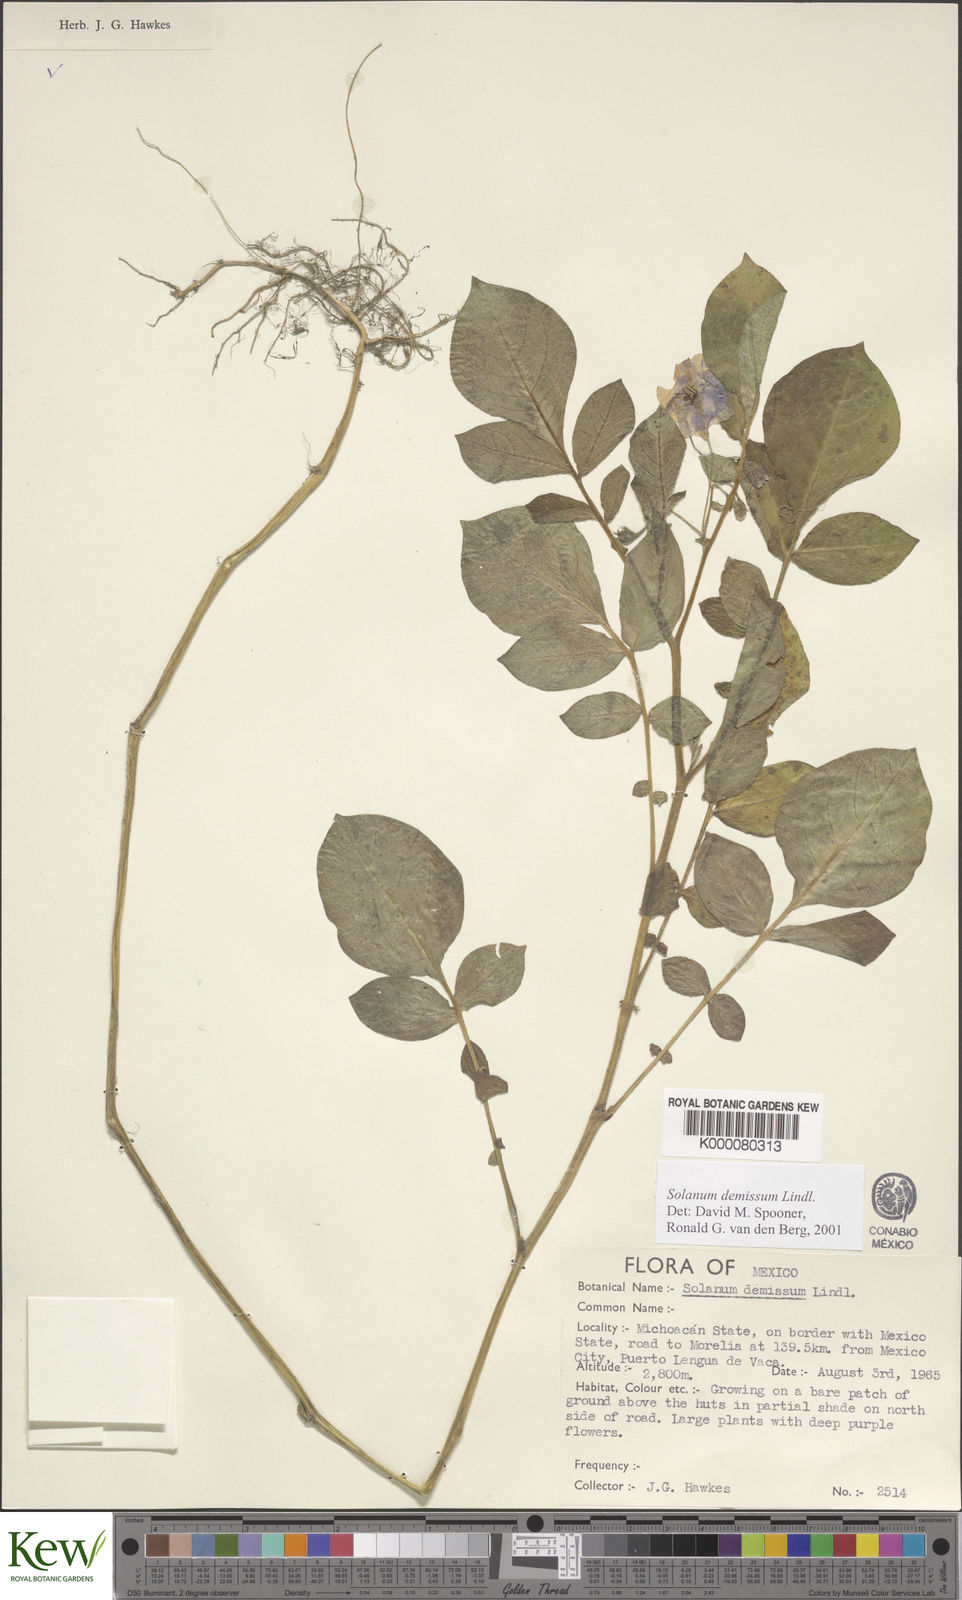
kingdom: Plantae
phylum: Tracheophyta
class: Magnoliopsida
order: Solanales
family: Solanaceae
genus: Solanum
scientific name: Solanum demissum
